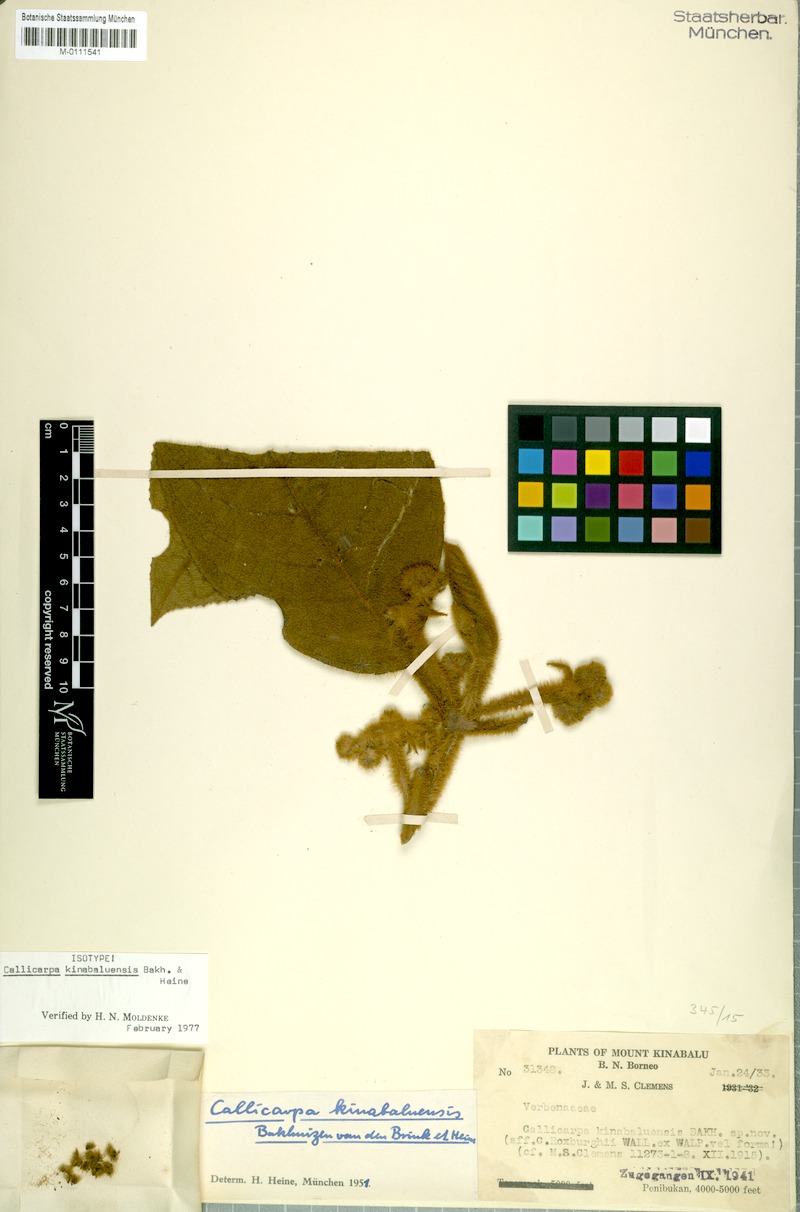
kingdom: Plantae
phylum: Tracheophyta
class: Magnoliopsida
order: Lamiales
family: Lamiaceae
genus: Callicarpa
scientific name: Callicarpa kinabaluensis
